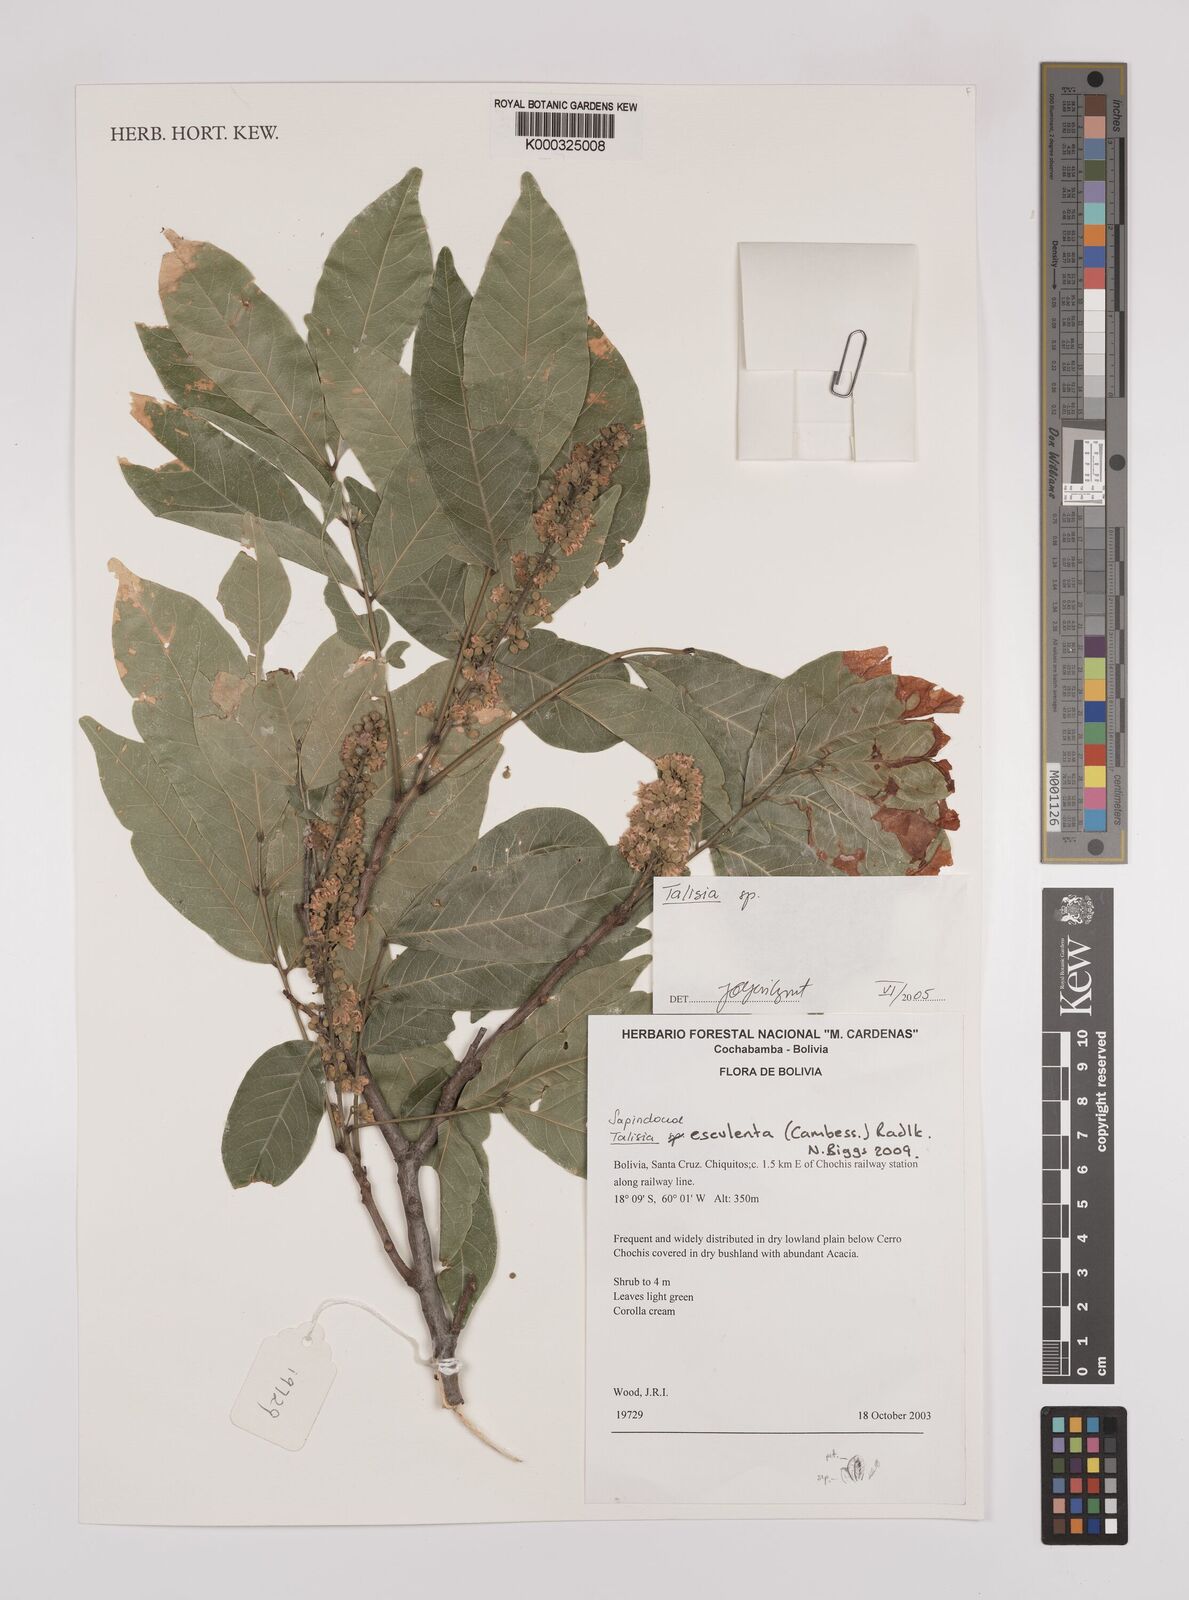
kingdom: Plantae
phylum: Tracheophyta
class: Magnoliopsida
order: Sapindales
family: Sapindaceae
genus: Talisia
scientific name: Talisia
